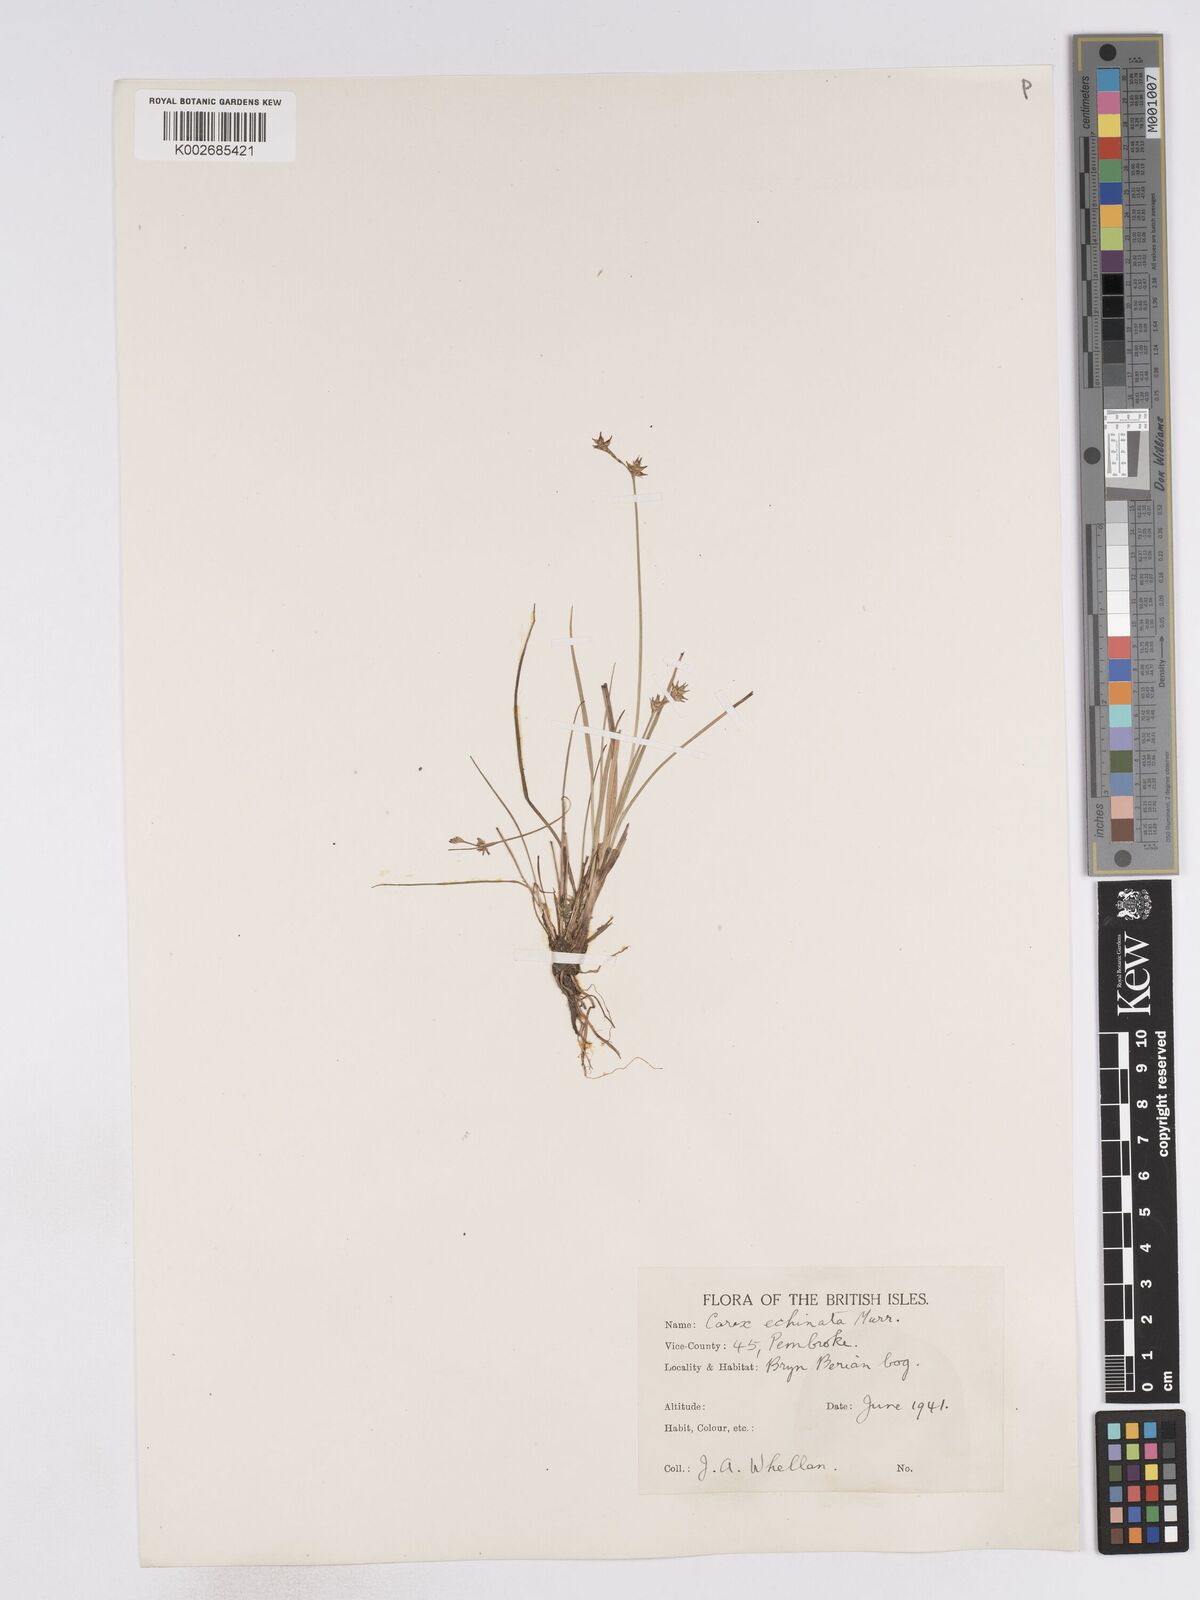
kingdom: Plantae
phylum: Tracheophyta
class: Liliopsida
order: Poales
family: Cyperaceae
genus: Carex
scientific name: Carex echinata
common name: Star sedge
